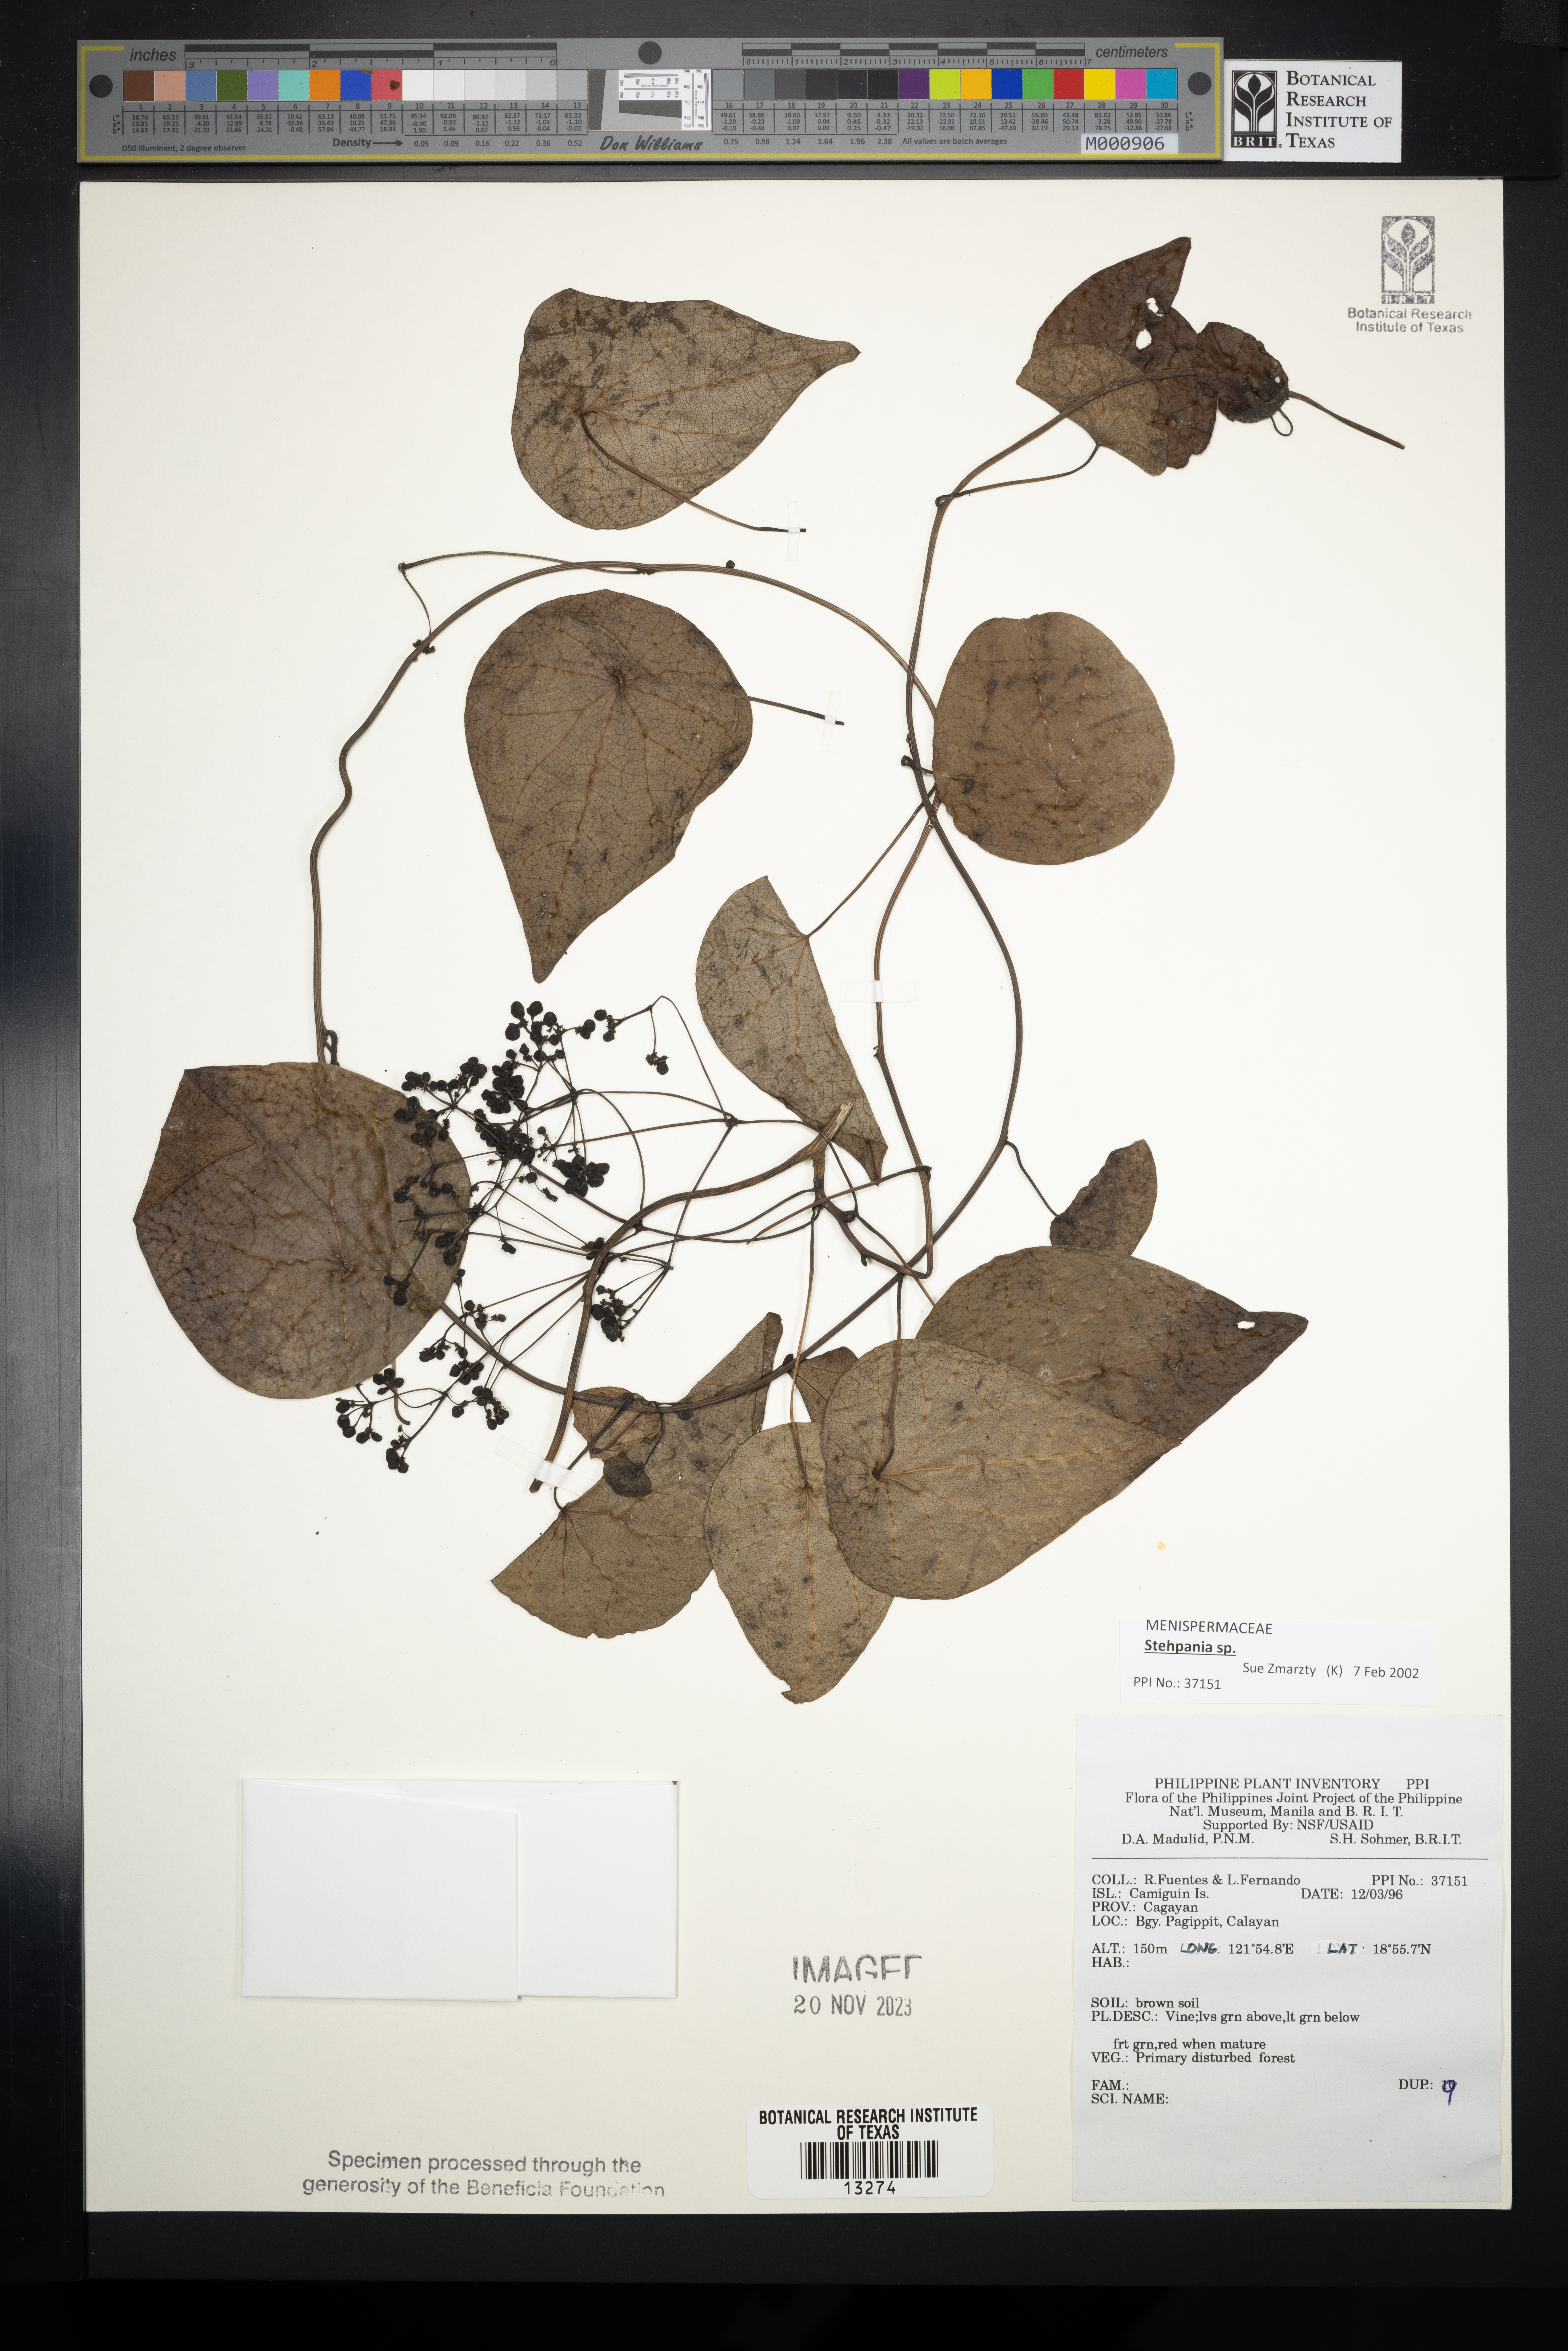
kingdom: Plantae
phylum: Tracheophyta
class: Magnoliopsida
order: Ranunculales
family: Menispermaceae
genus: Stephania
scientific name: Stephania japonica
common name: Snake vine
